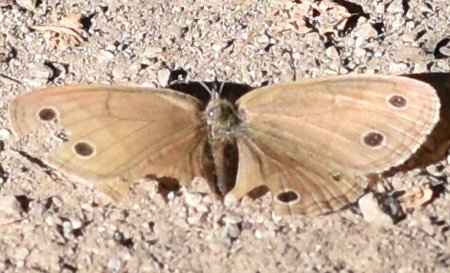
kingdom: Animalia
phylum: Arthropoda
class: Insecta
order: Lepidoptera
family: Nymphalidae
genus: Euptychia
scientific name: Euptychia cymela
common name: Little Wood Satyr
